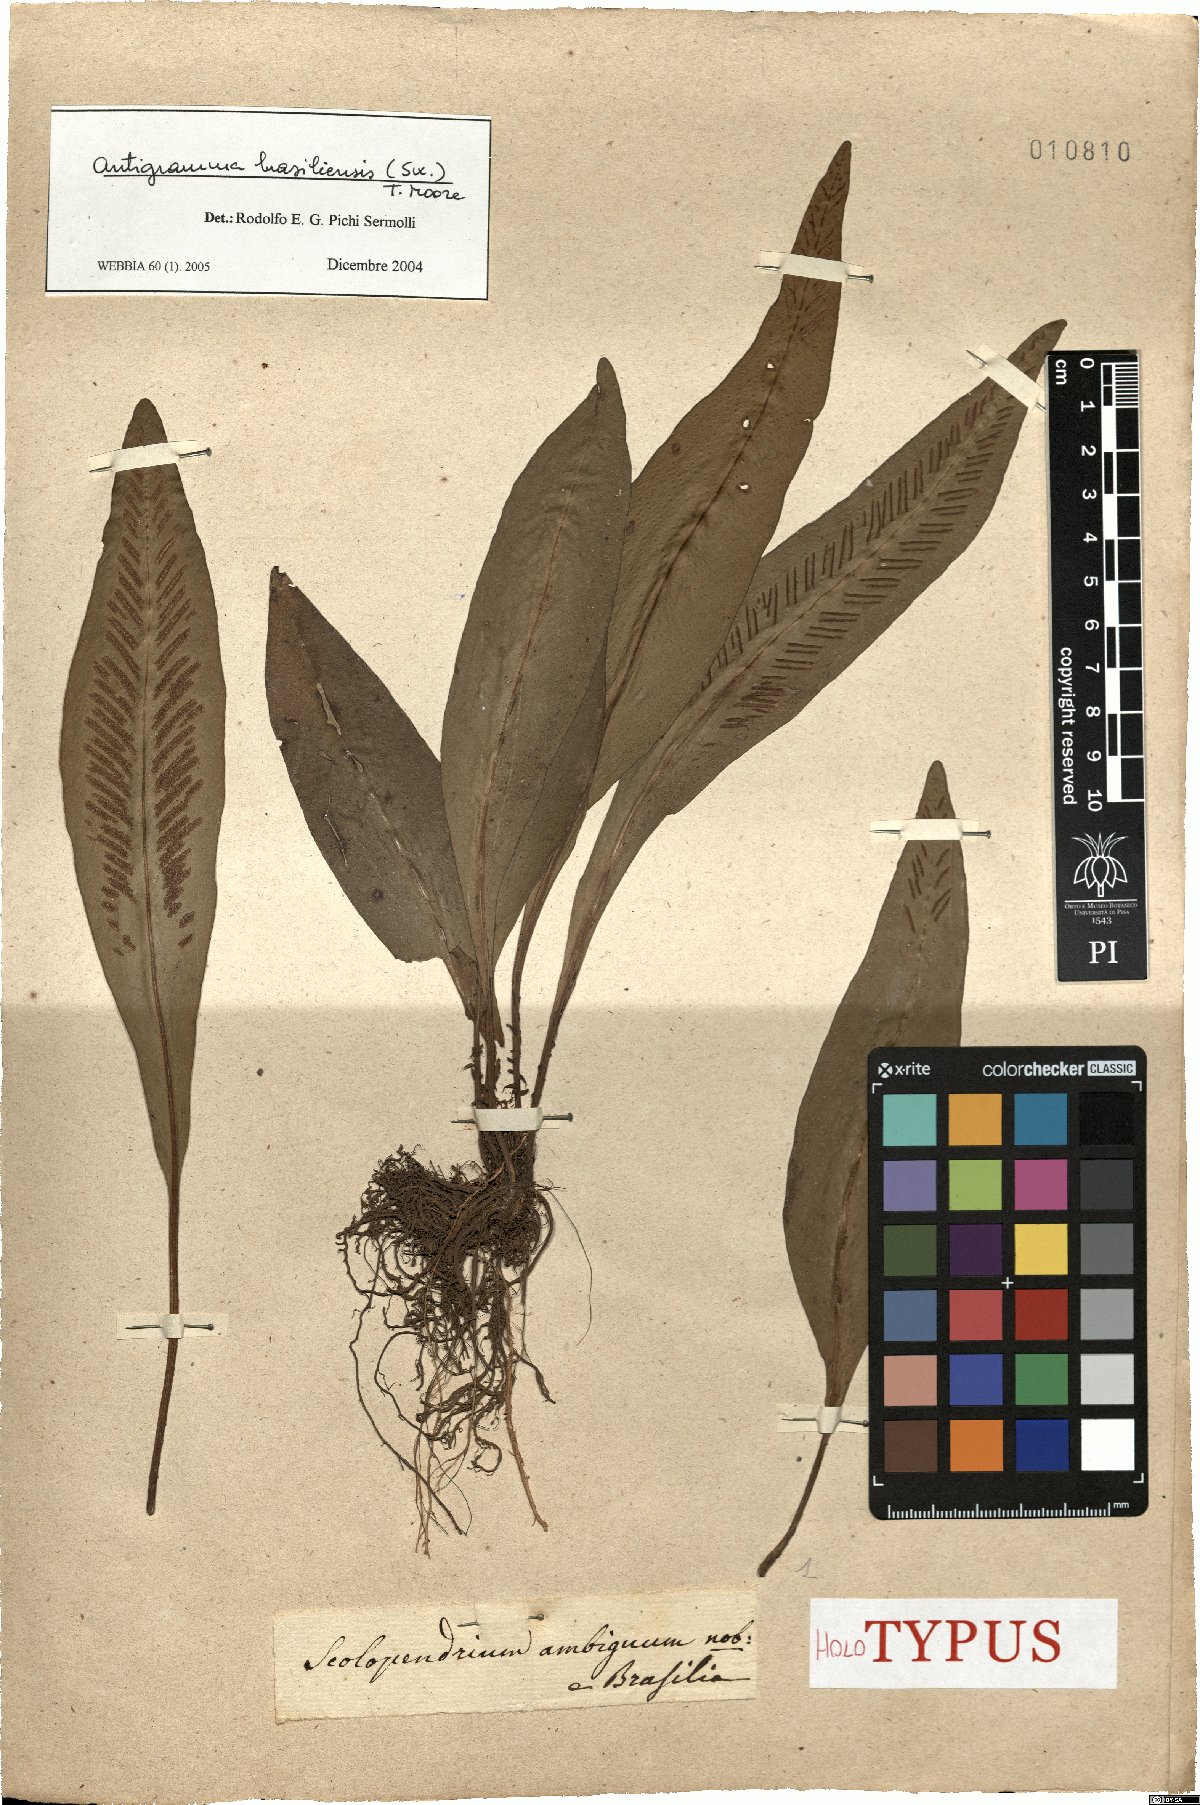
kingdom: Plantae
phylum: Tracheophyta
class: Polypodiopsida
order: Polypodiales
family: Aspleniaceae
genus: Asplenium
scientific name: Asplenium brasiliense
